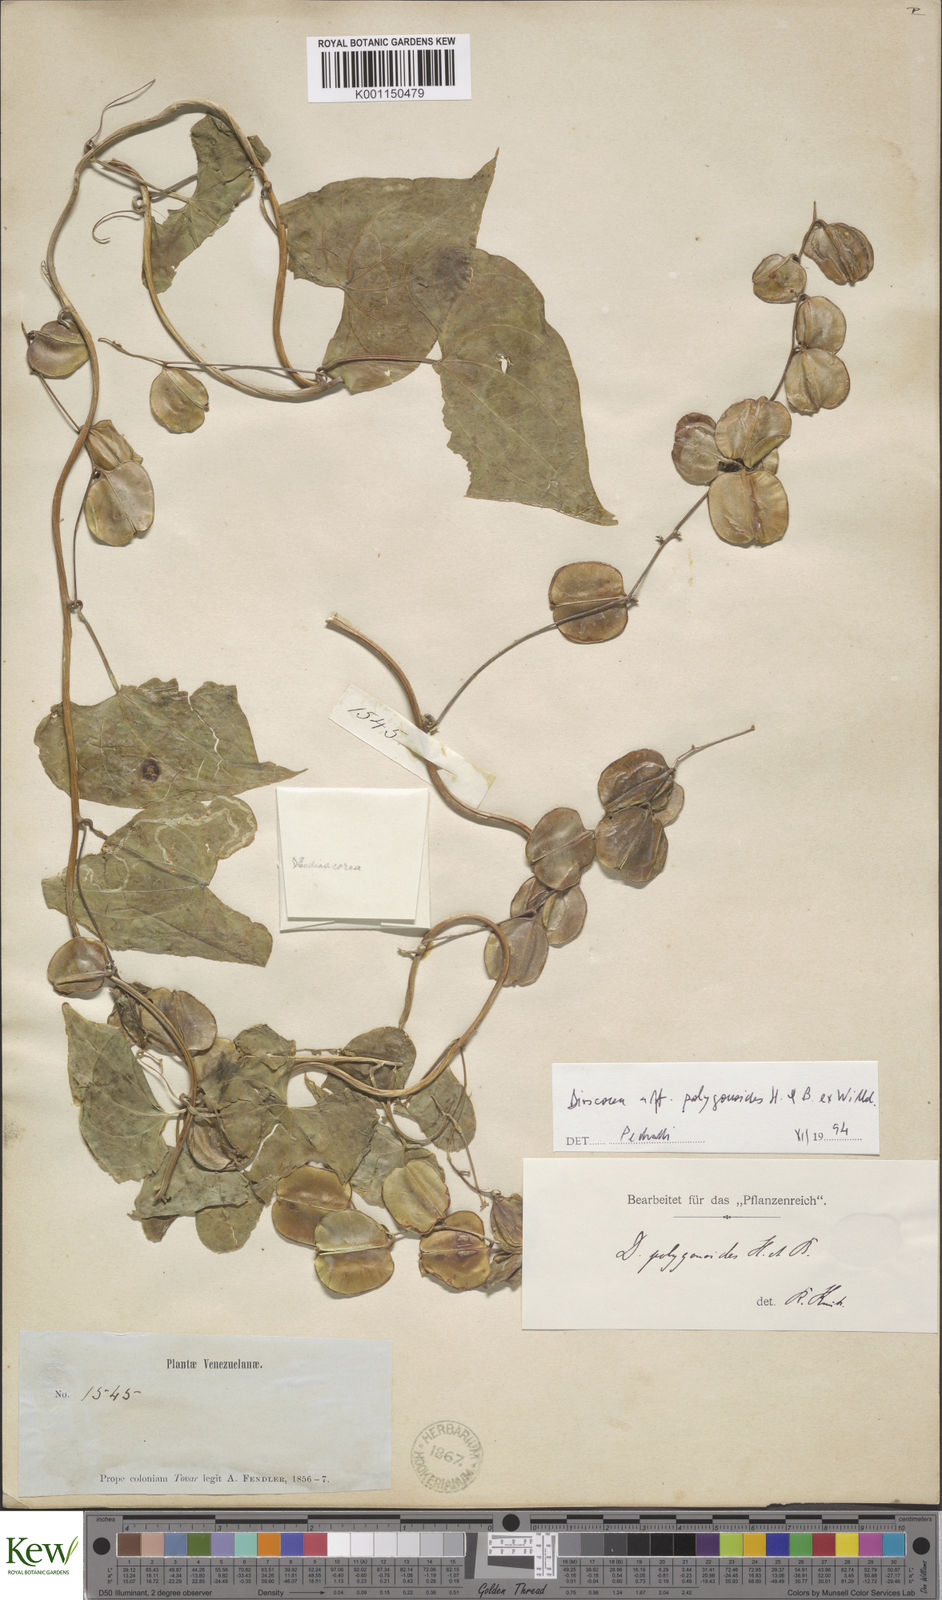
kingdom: Plantae
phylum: Tracheophyta
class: Liliopsida
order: Dioscoreales
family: Dioscoreaceae
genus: Dioscorea
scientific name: Dioscorea polygonoides
